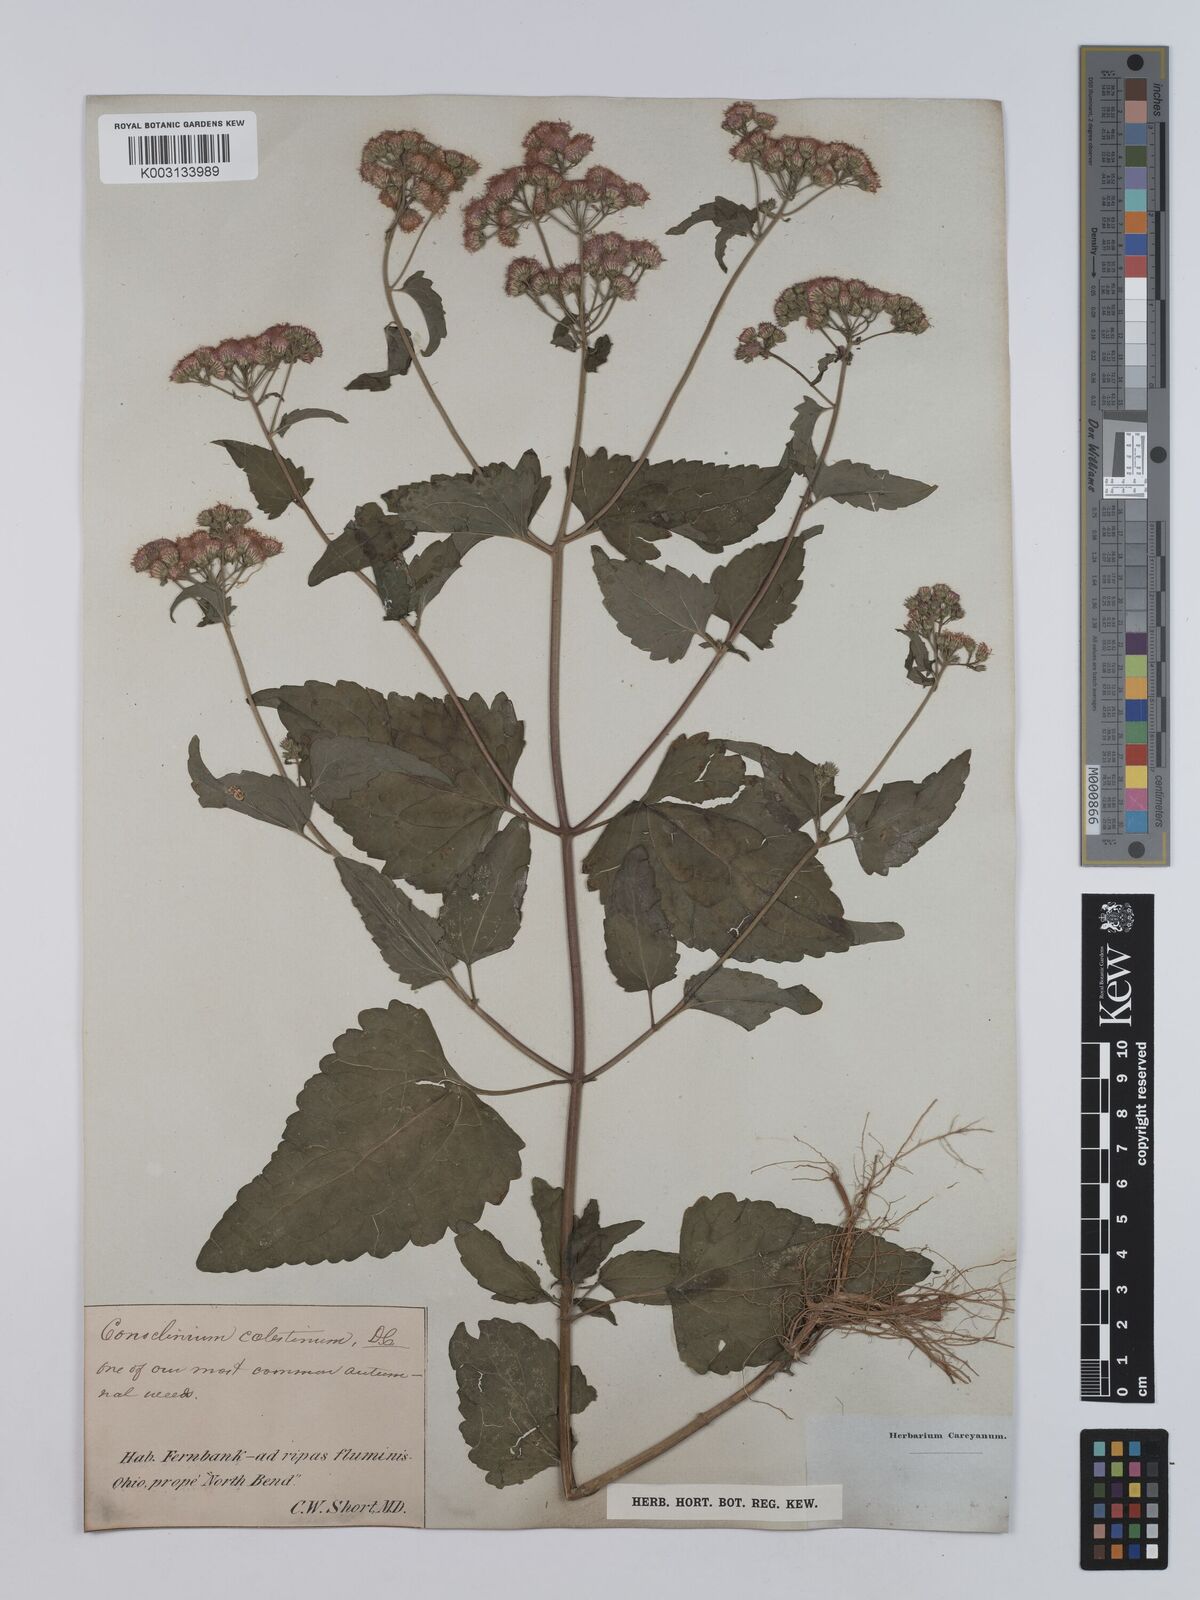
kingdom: Plantae
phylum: Tracheophyta
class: Magnoliopsida
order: Asterales
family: Asteraceae
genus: Conoclinium
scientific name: Conoclinium coelestinum
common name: Blue mistflower
